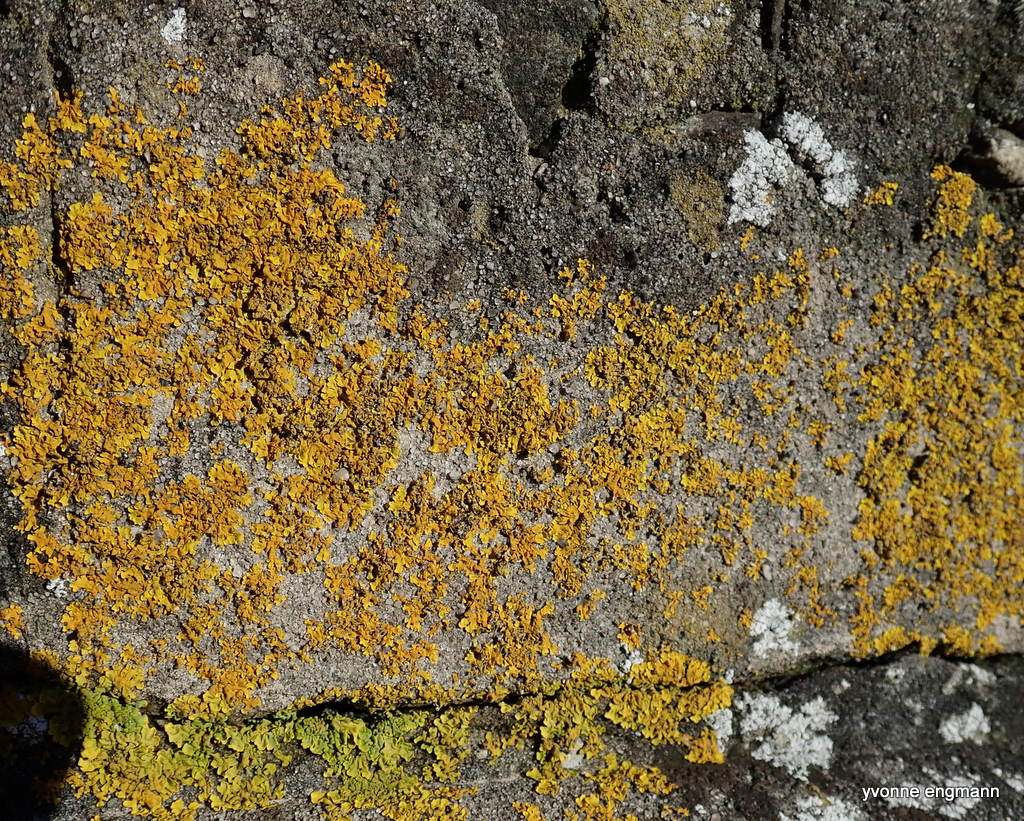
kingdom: Fungi
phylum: Ascomycota
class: Lecanoromycetes
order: Teloschistales
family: Teloschistaceae
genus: Xanthoria
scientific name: Xanthoria parietina
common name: almindelig væggelav
